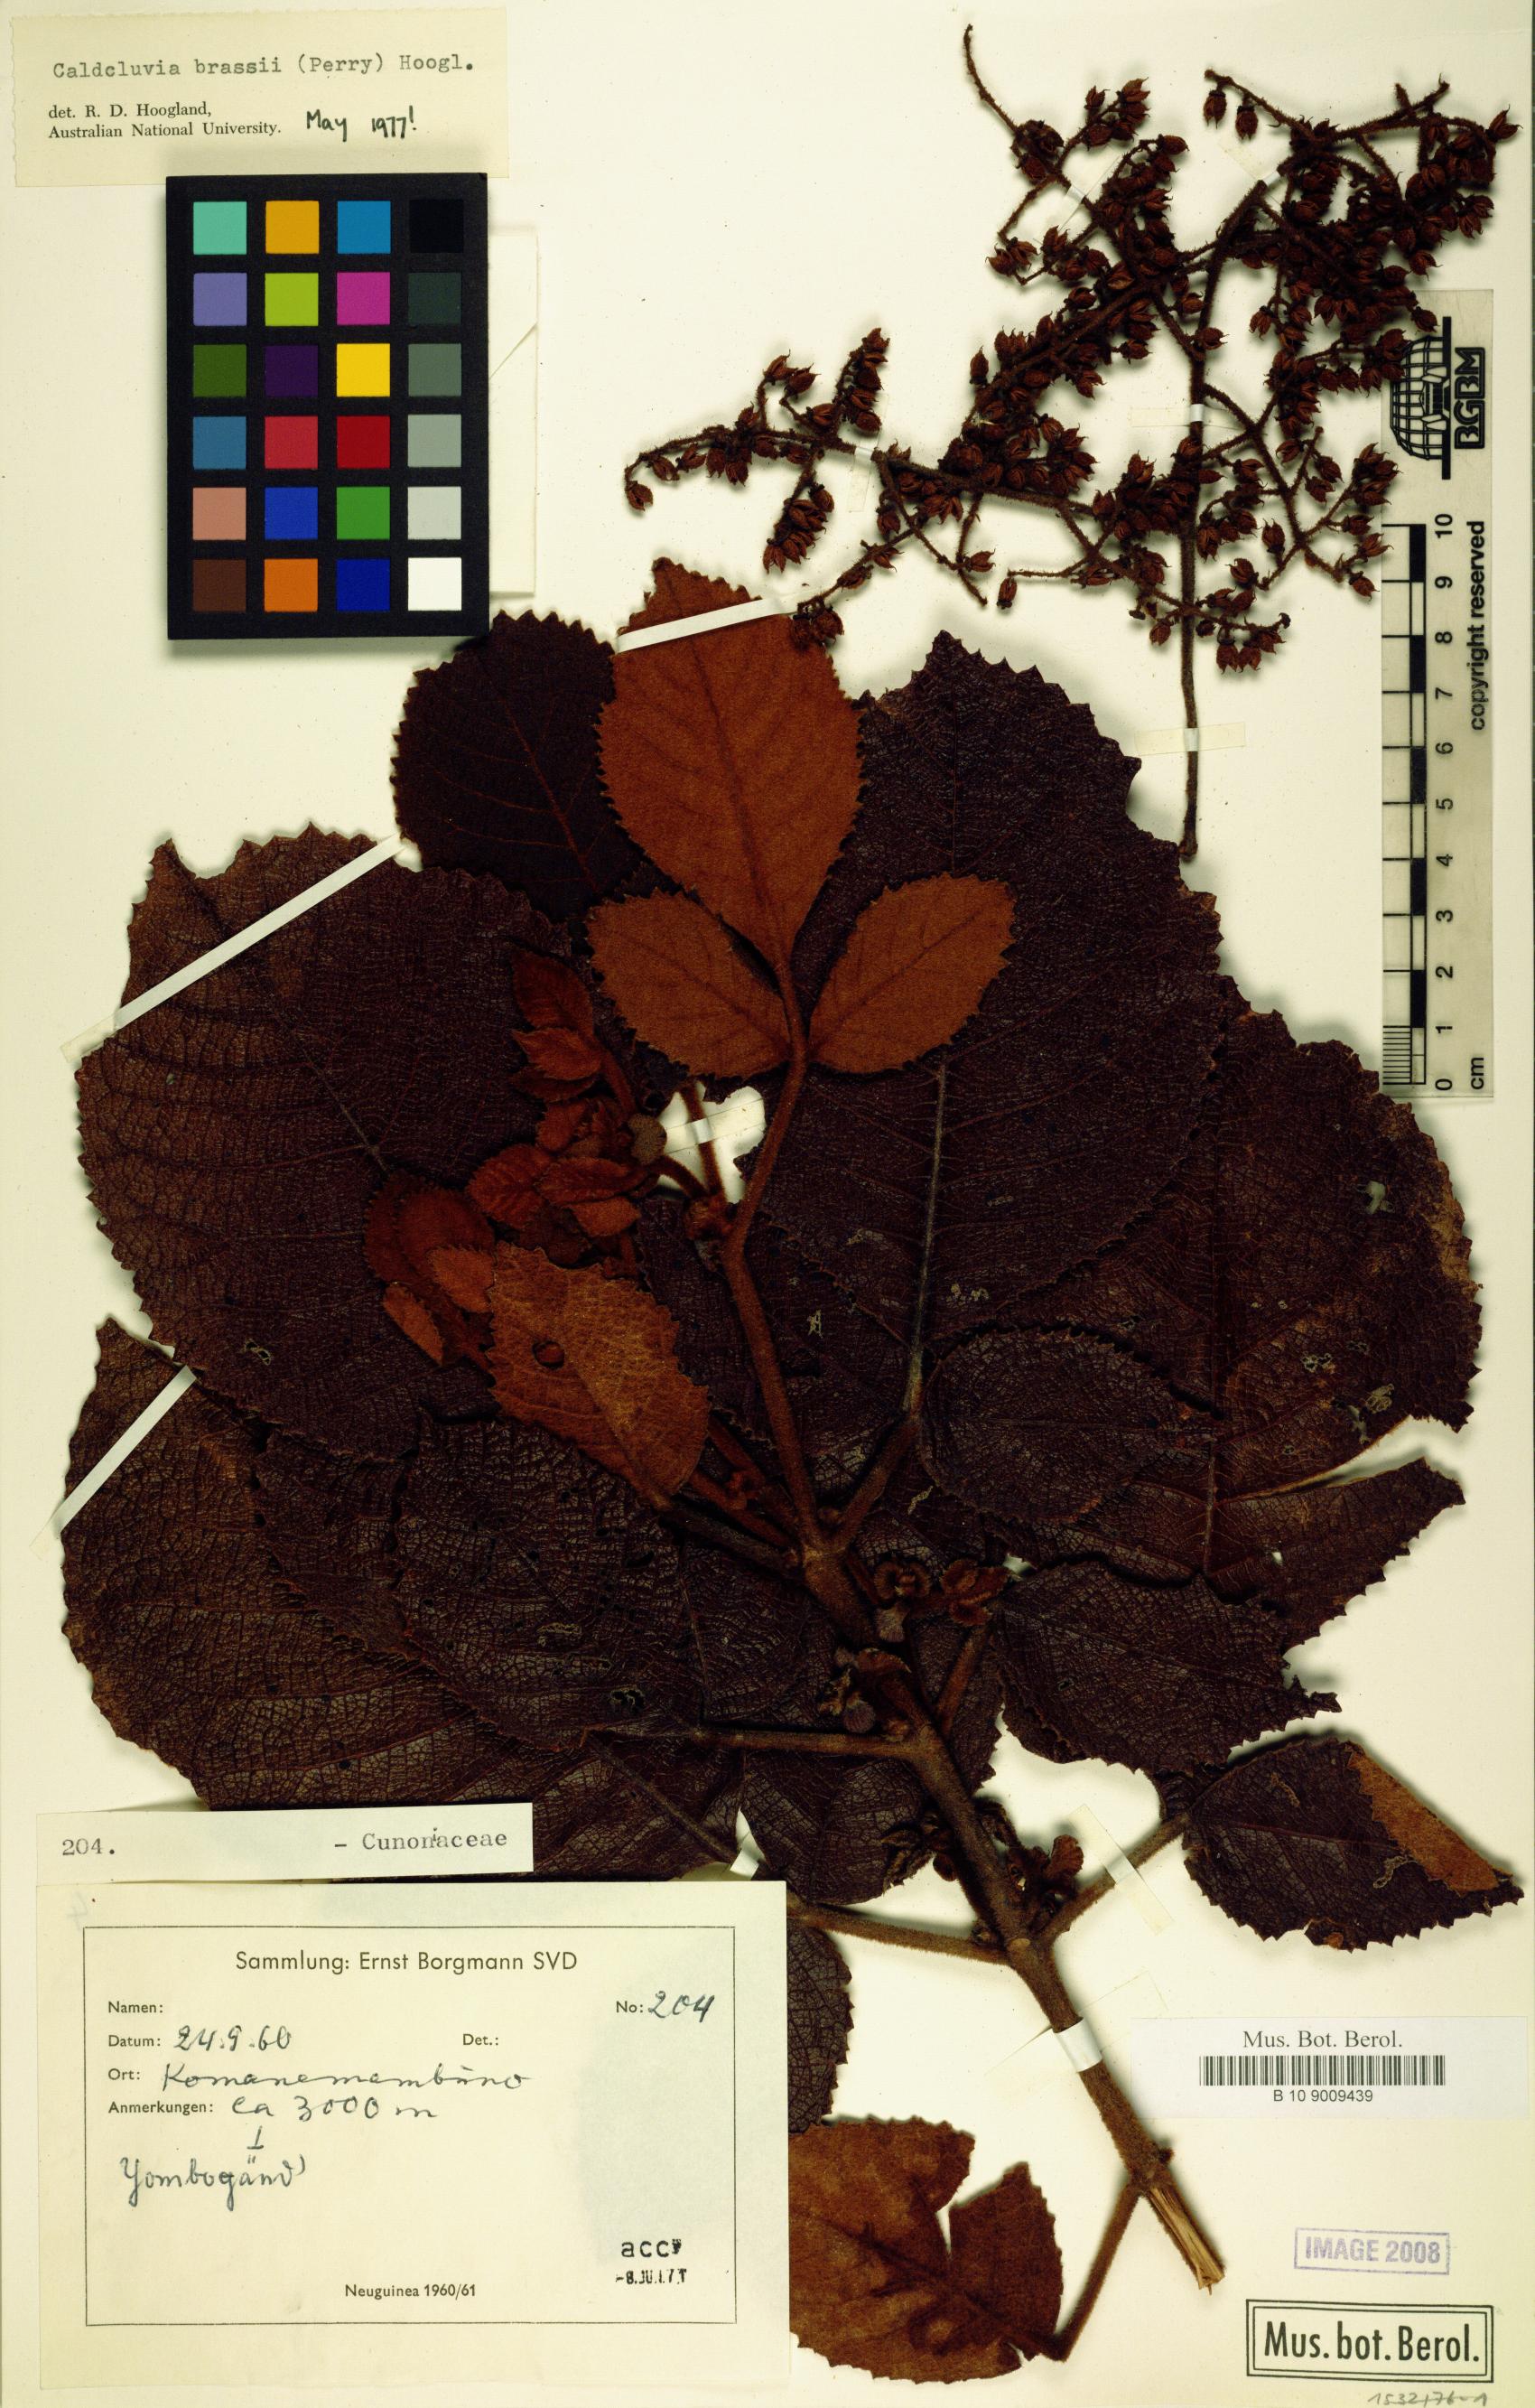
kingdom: Plantae
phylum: Tracheophyta
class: Magnoliopsida
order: Oxalidales
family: Cunoniaceae
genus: Ackama
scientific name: Ackama brassii
